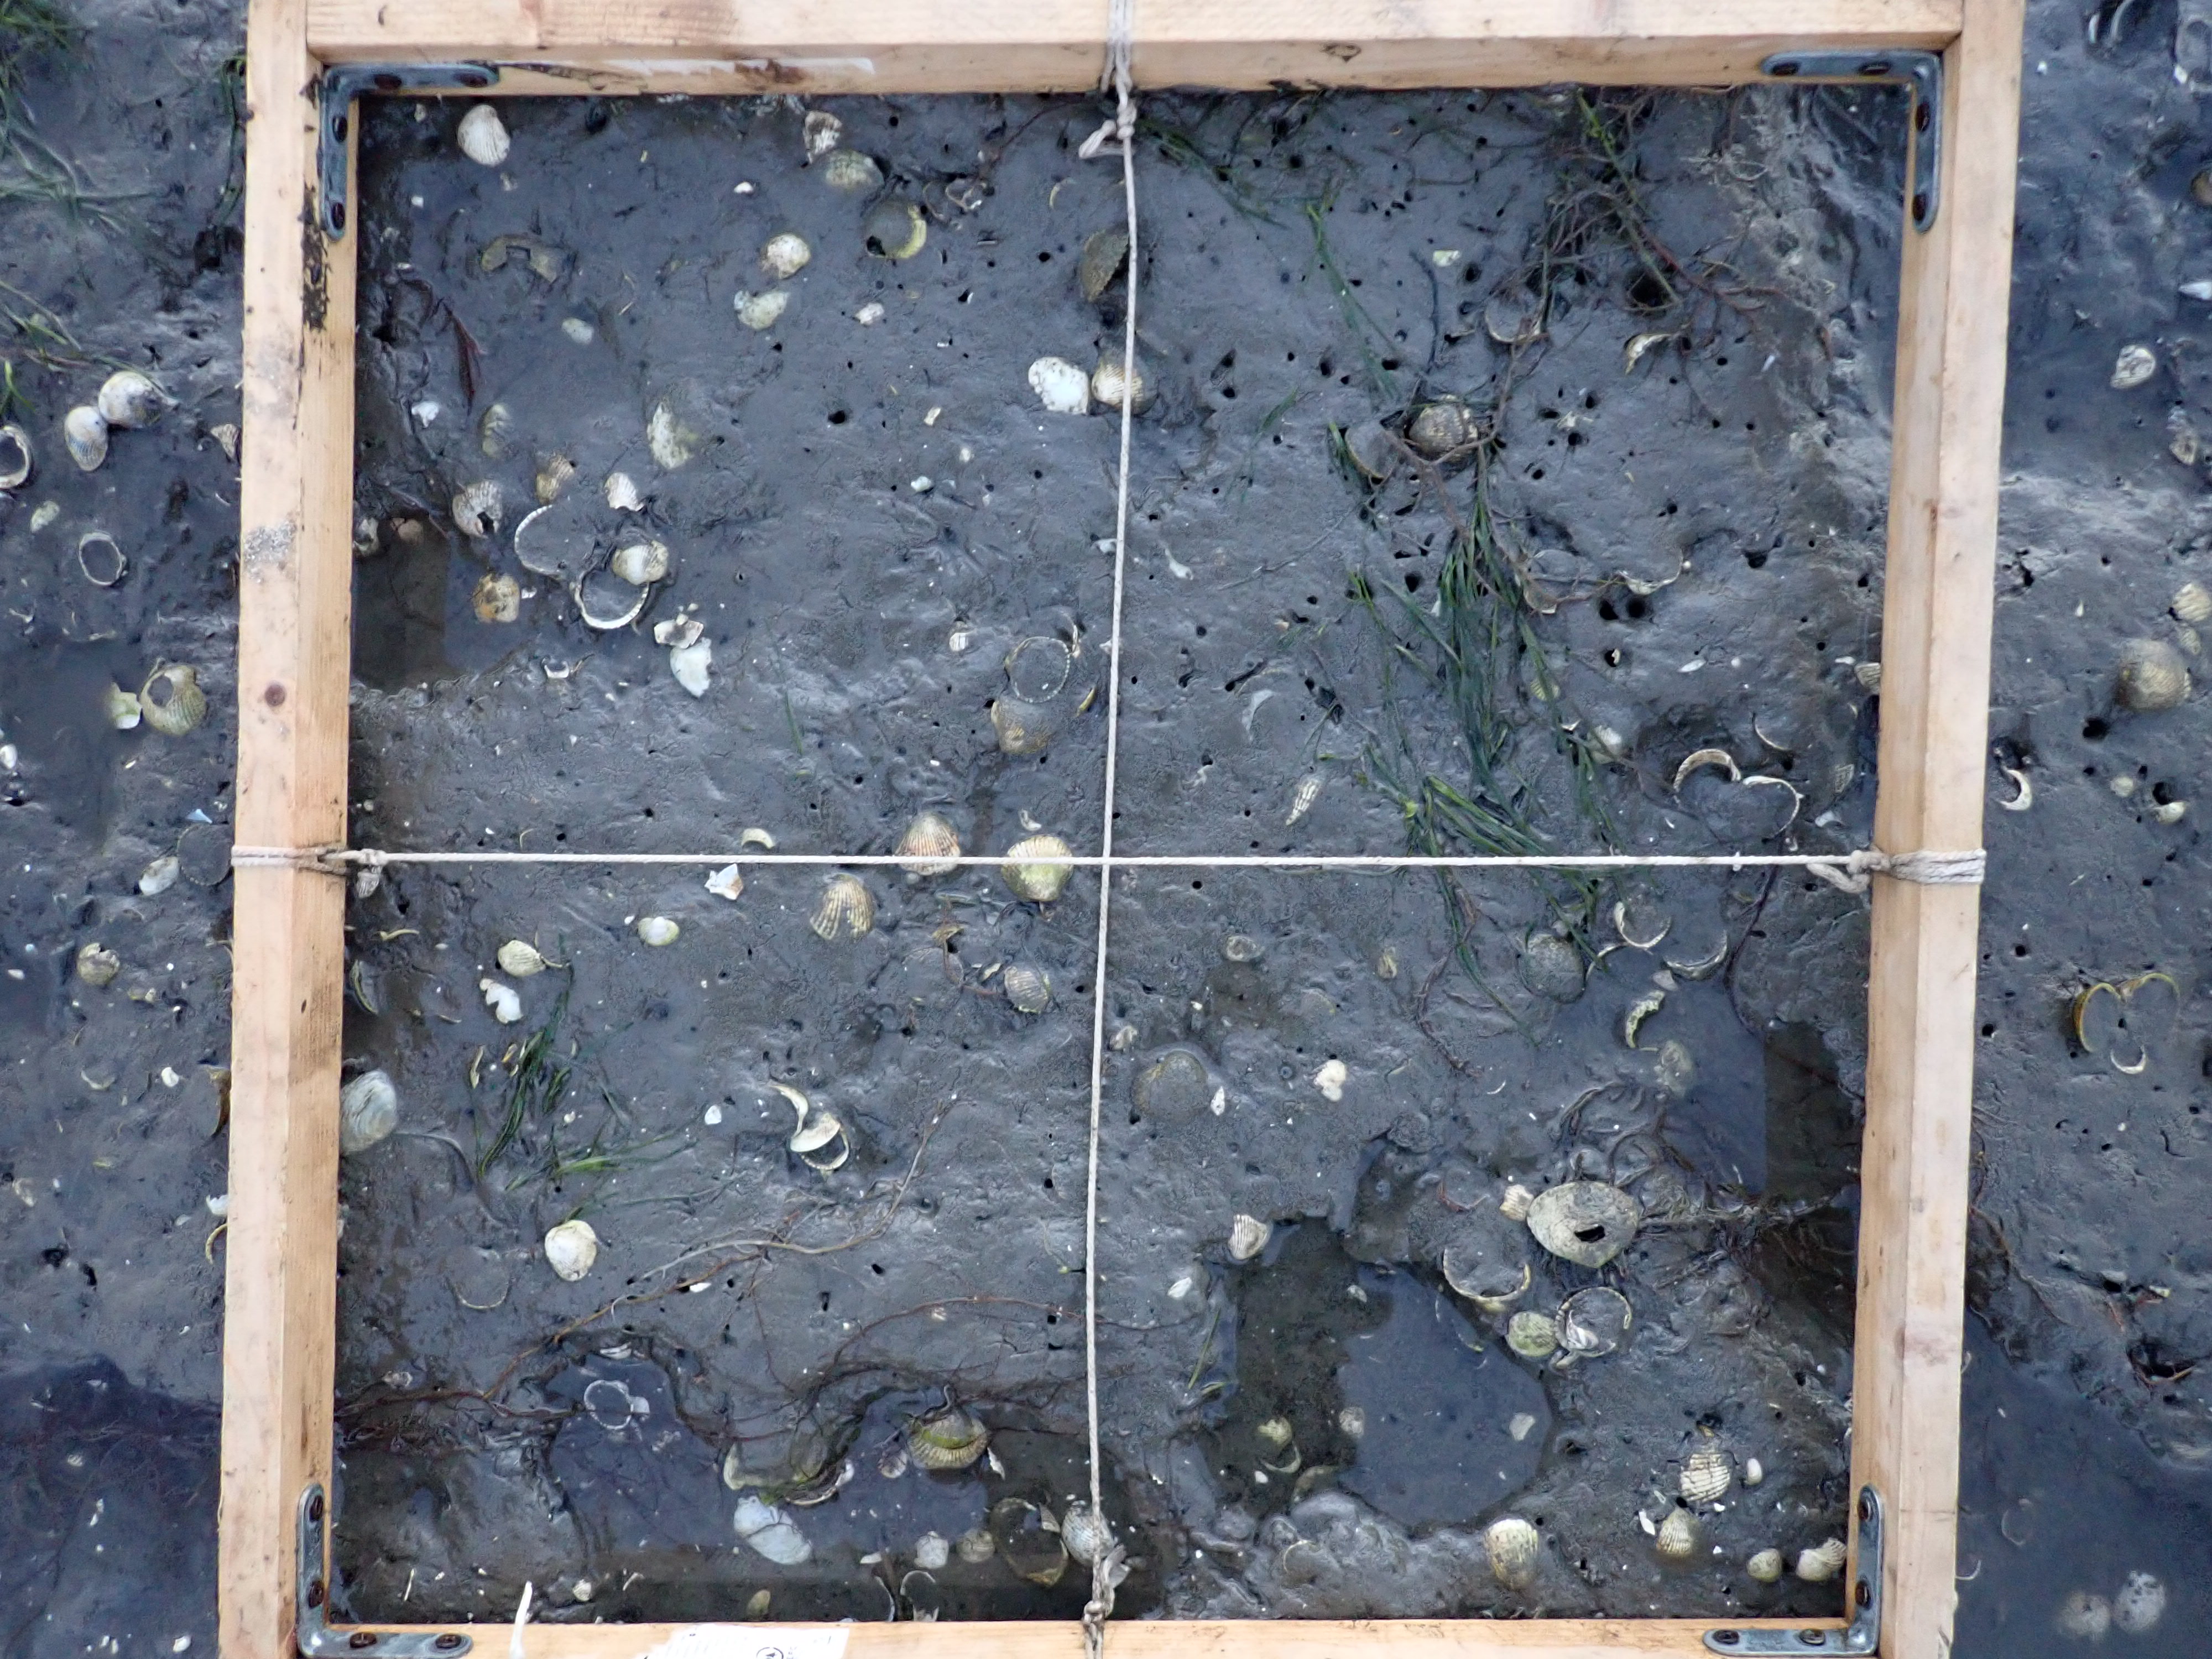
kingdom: Plantae
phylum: Rhodophyta
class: Florideophyceae
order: Gracilariales
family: Gracilariaceae
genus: Gracilaria
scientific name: Gracilaria vermiculophylla
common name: Algae
